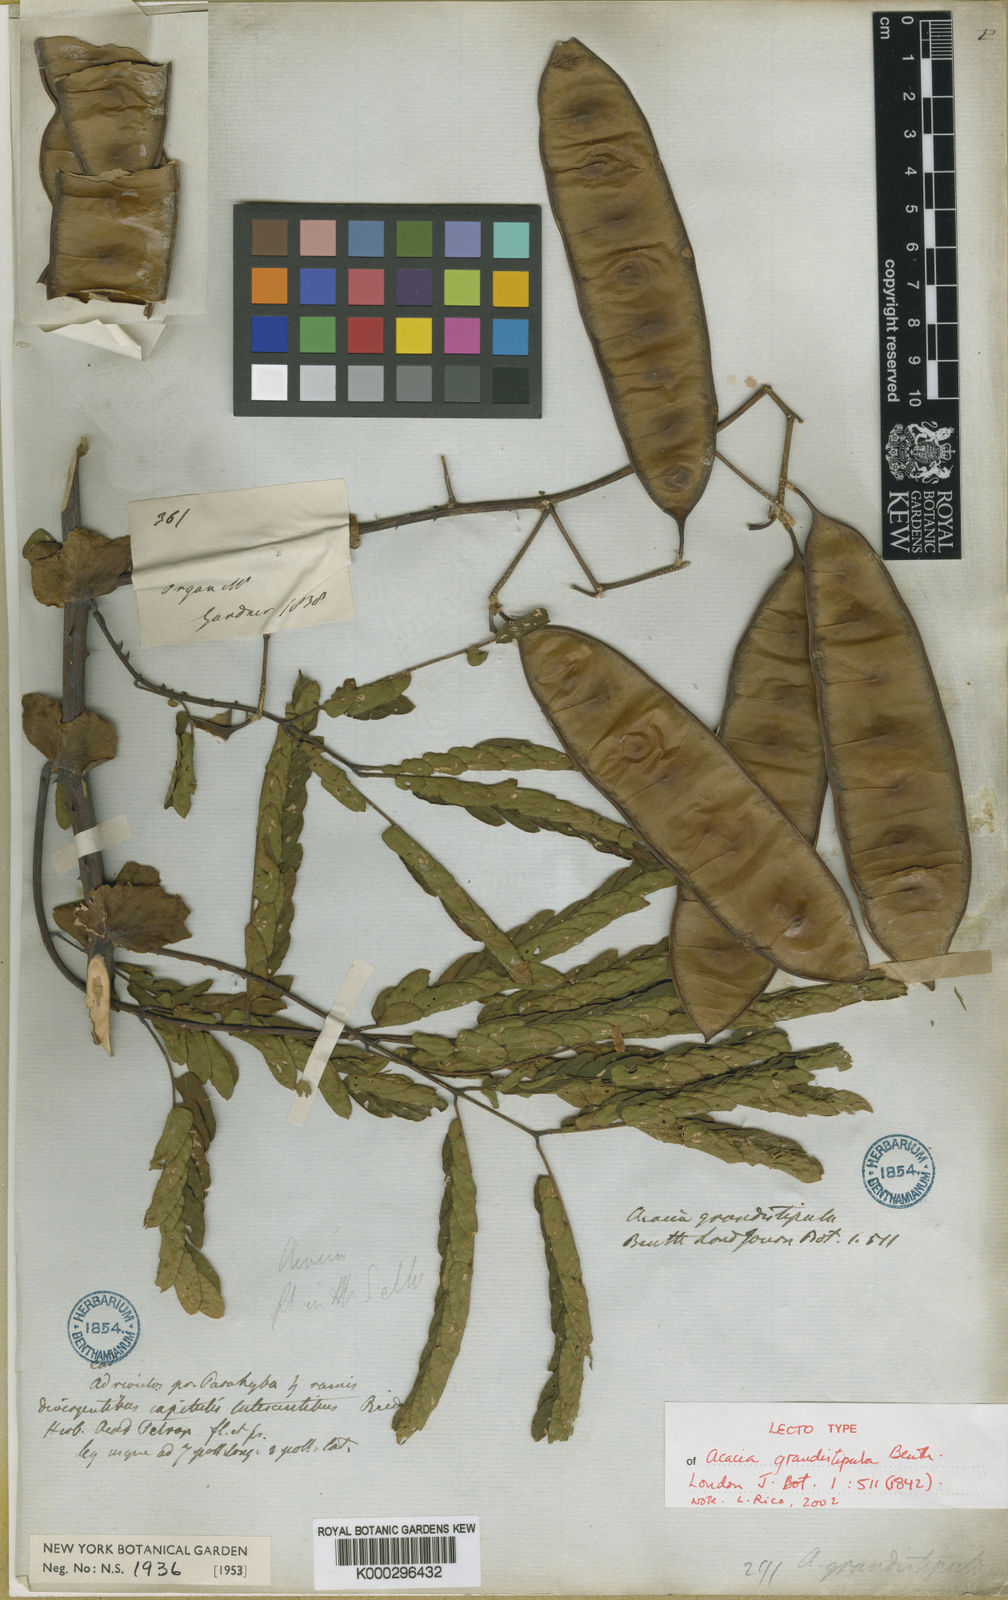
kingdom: Plantae
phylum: Tracheophyta
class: Magnoliopsida
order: Fabales
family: Fabaceae
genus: Senegalia
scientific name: Senegalia grandistipula
